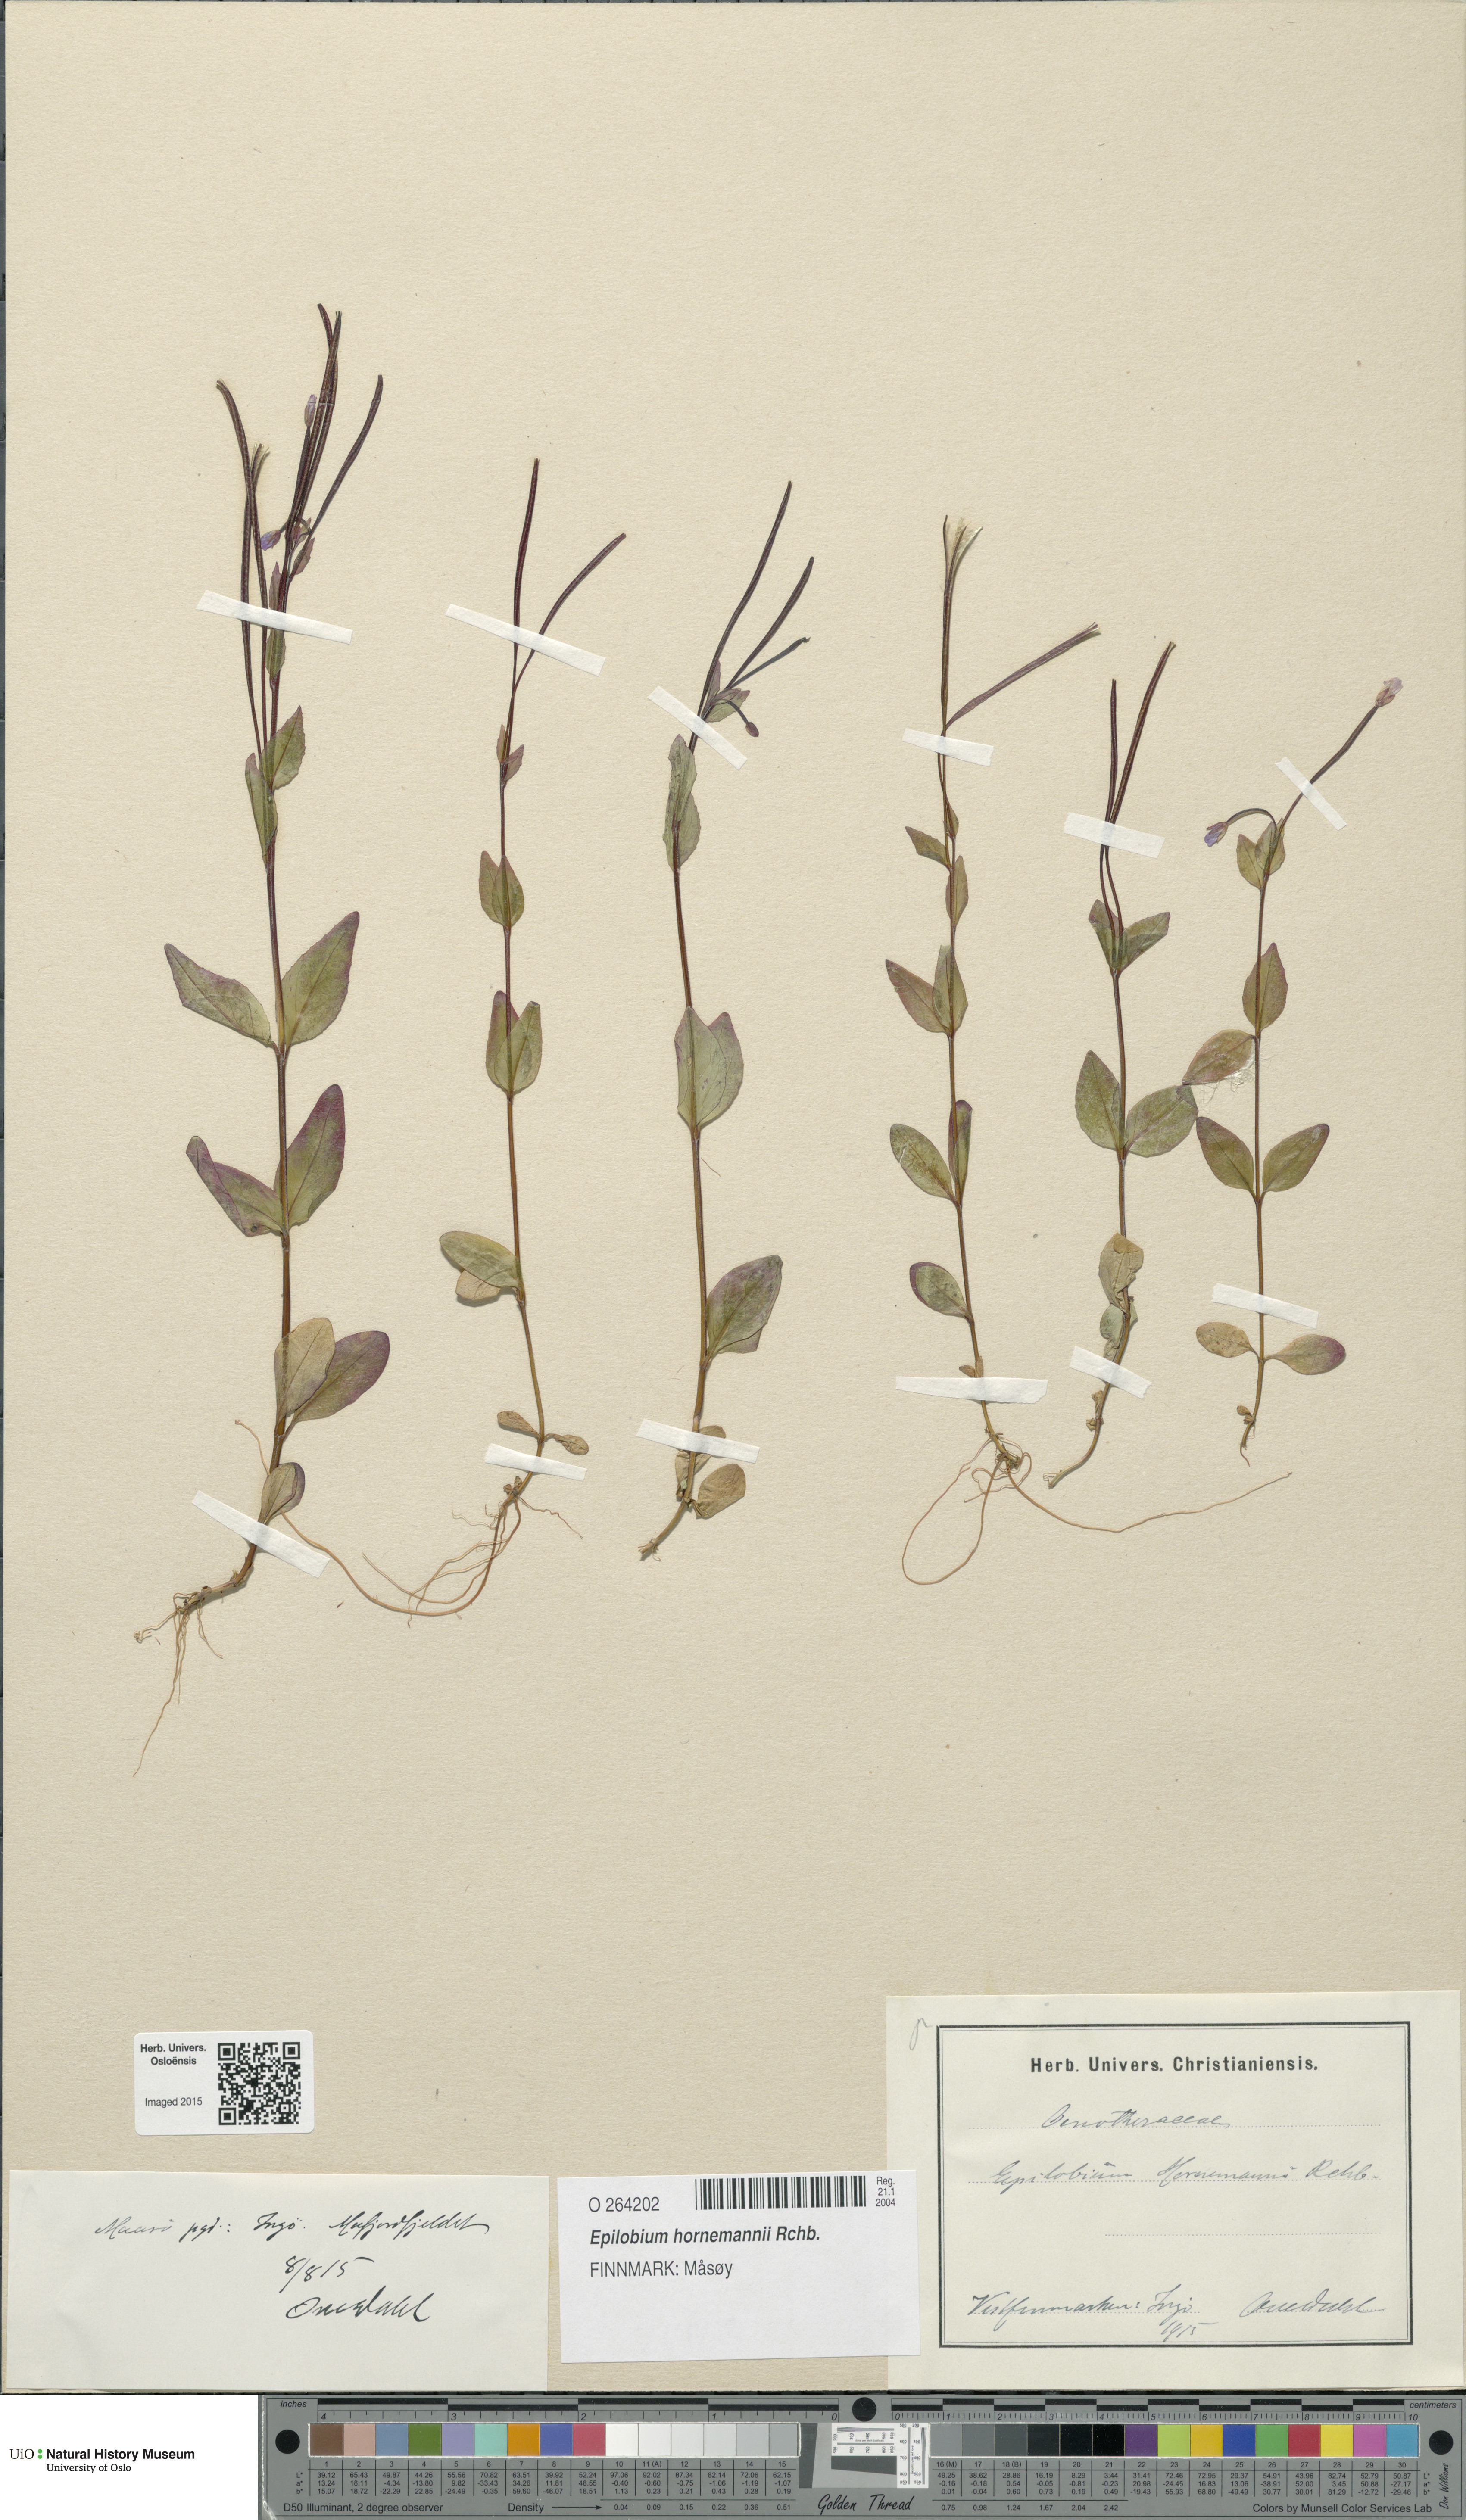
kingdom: Plantae
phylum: Tracheophyta
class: Magnoliopsida
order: Myrtales
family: Onagraceae
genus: Epilobium
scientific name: Epilobium hornemannii
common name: Hornemann's willowherb
